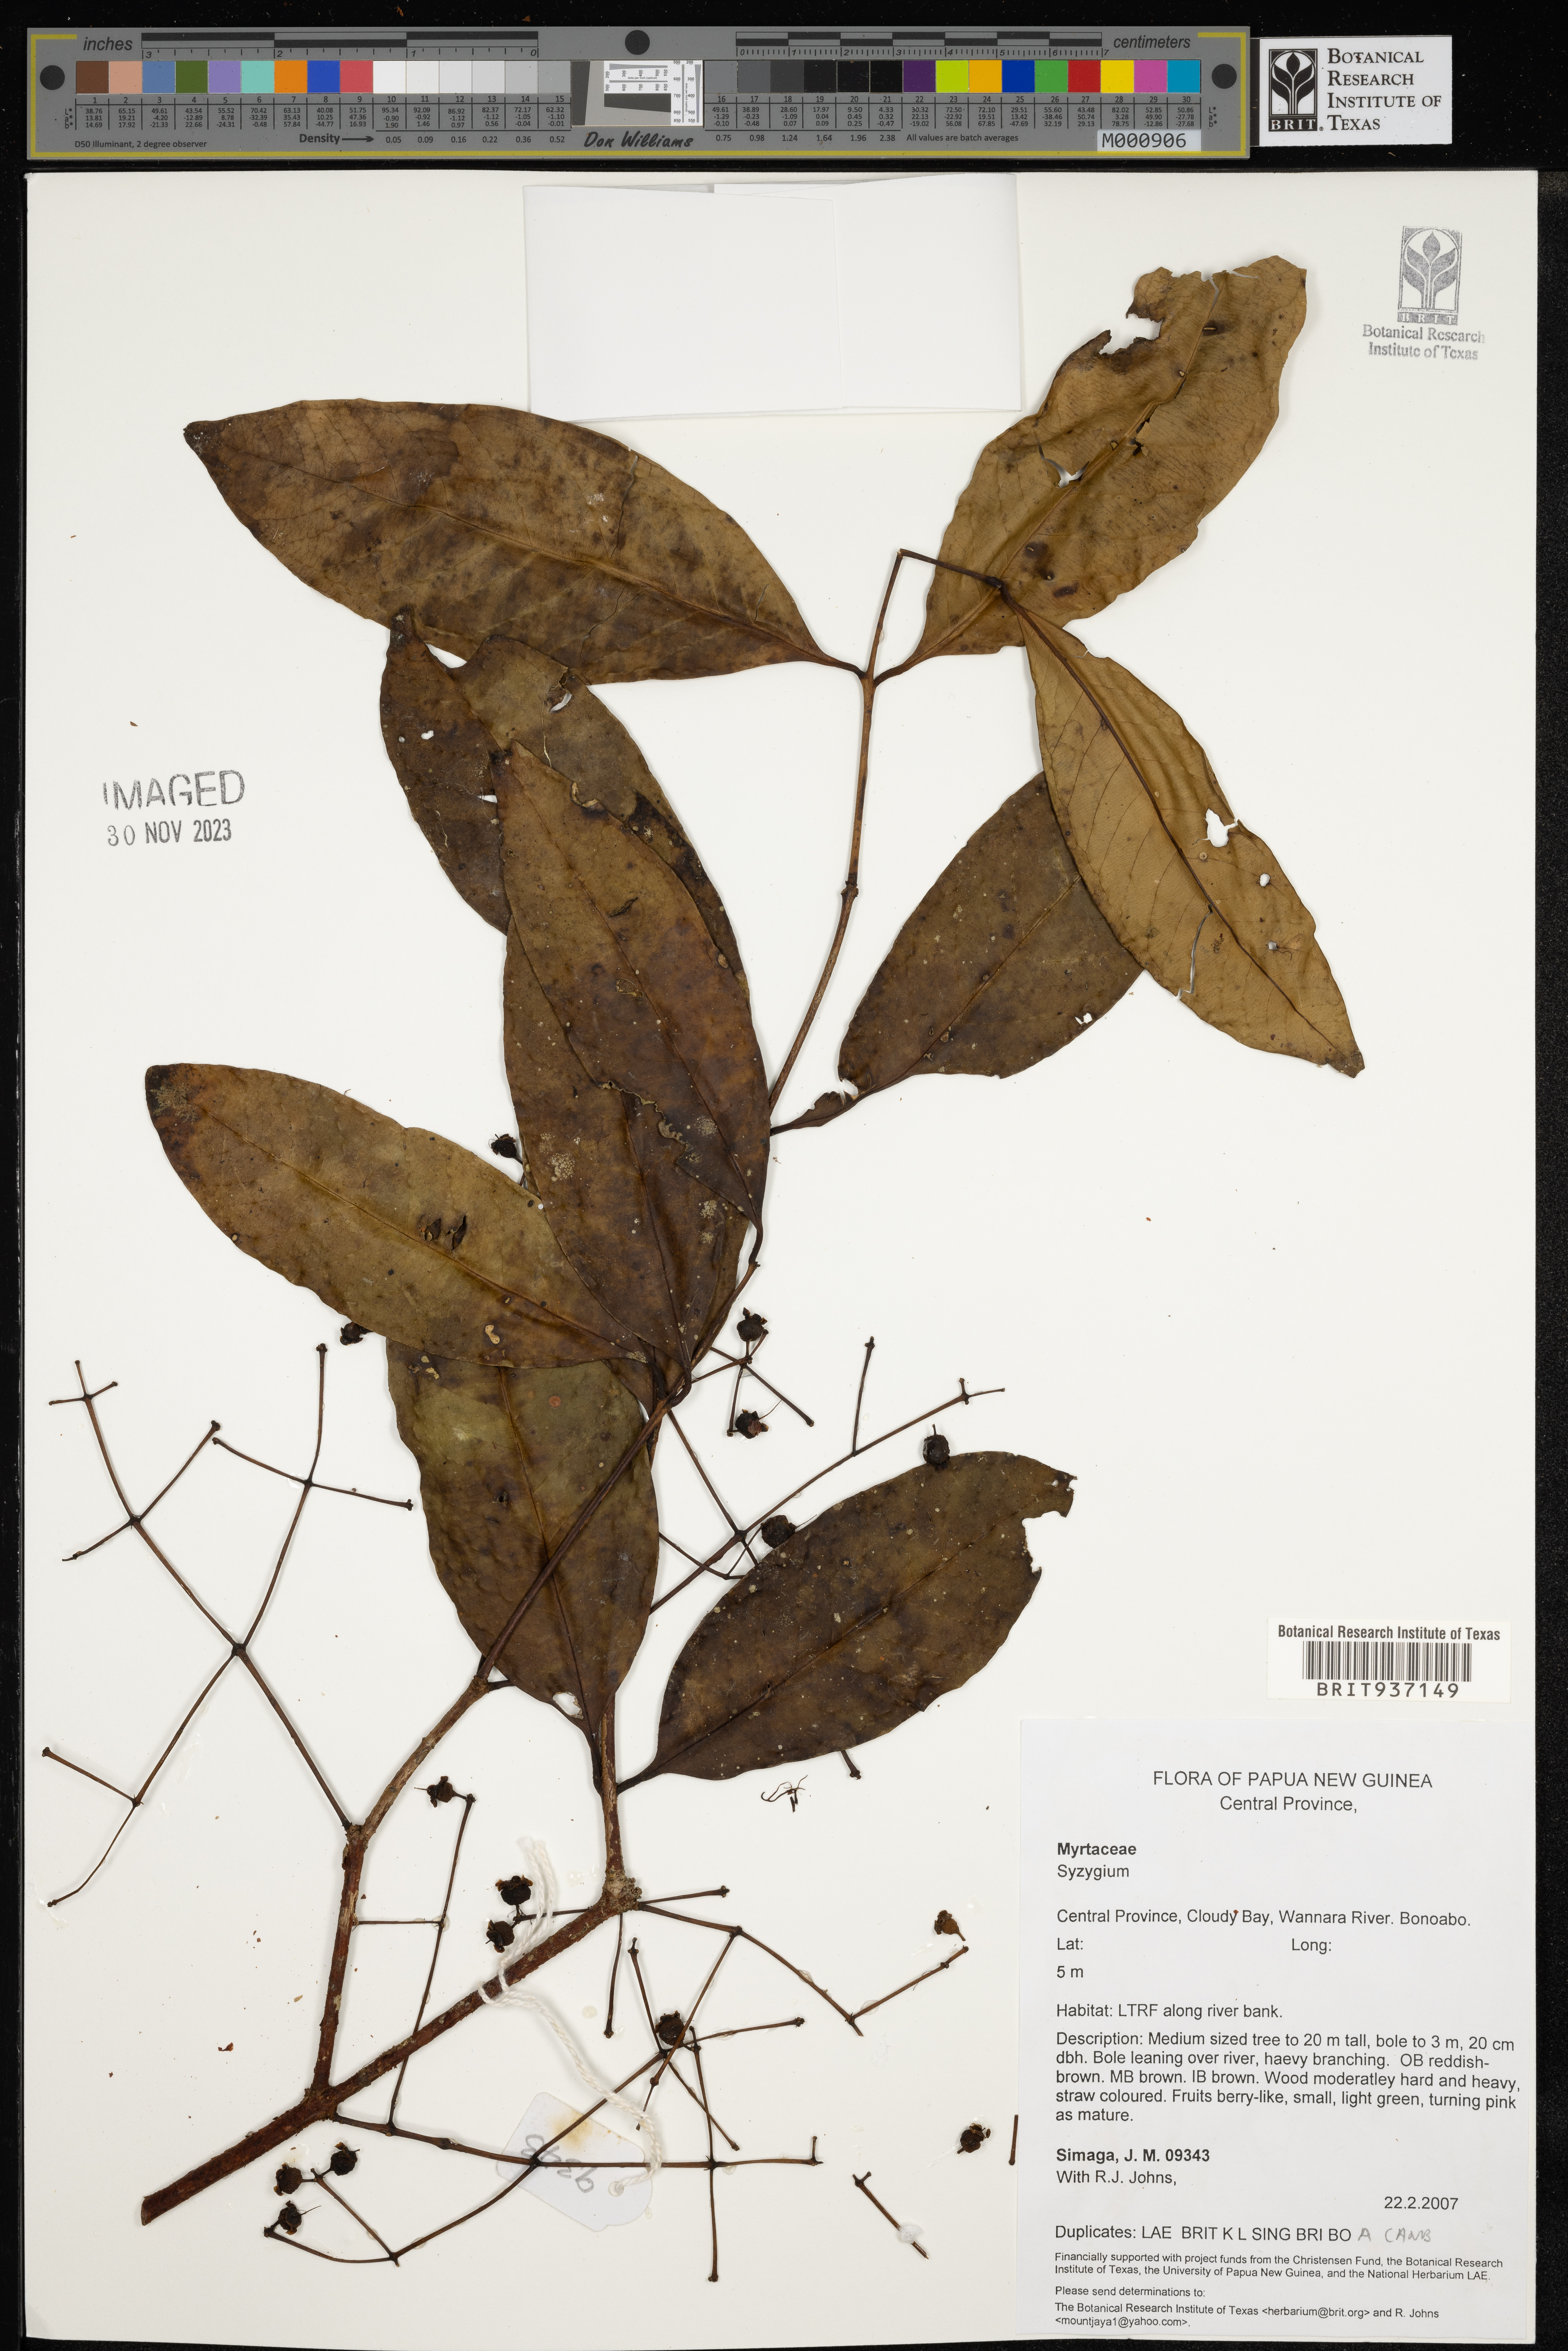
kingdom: Plantae
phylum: Tracheophyta
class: Magnoliopsida
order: Myrtales
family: Myrtaceae
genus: Syzygium
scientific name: Syzygium
